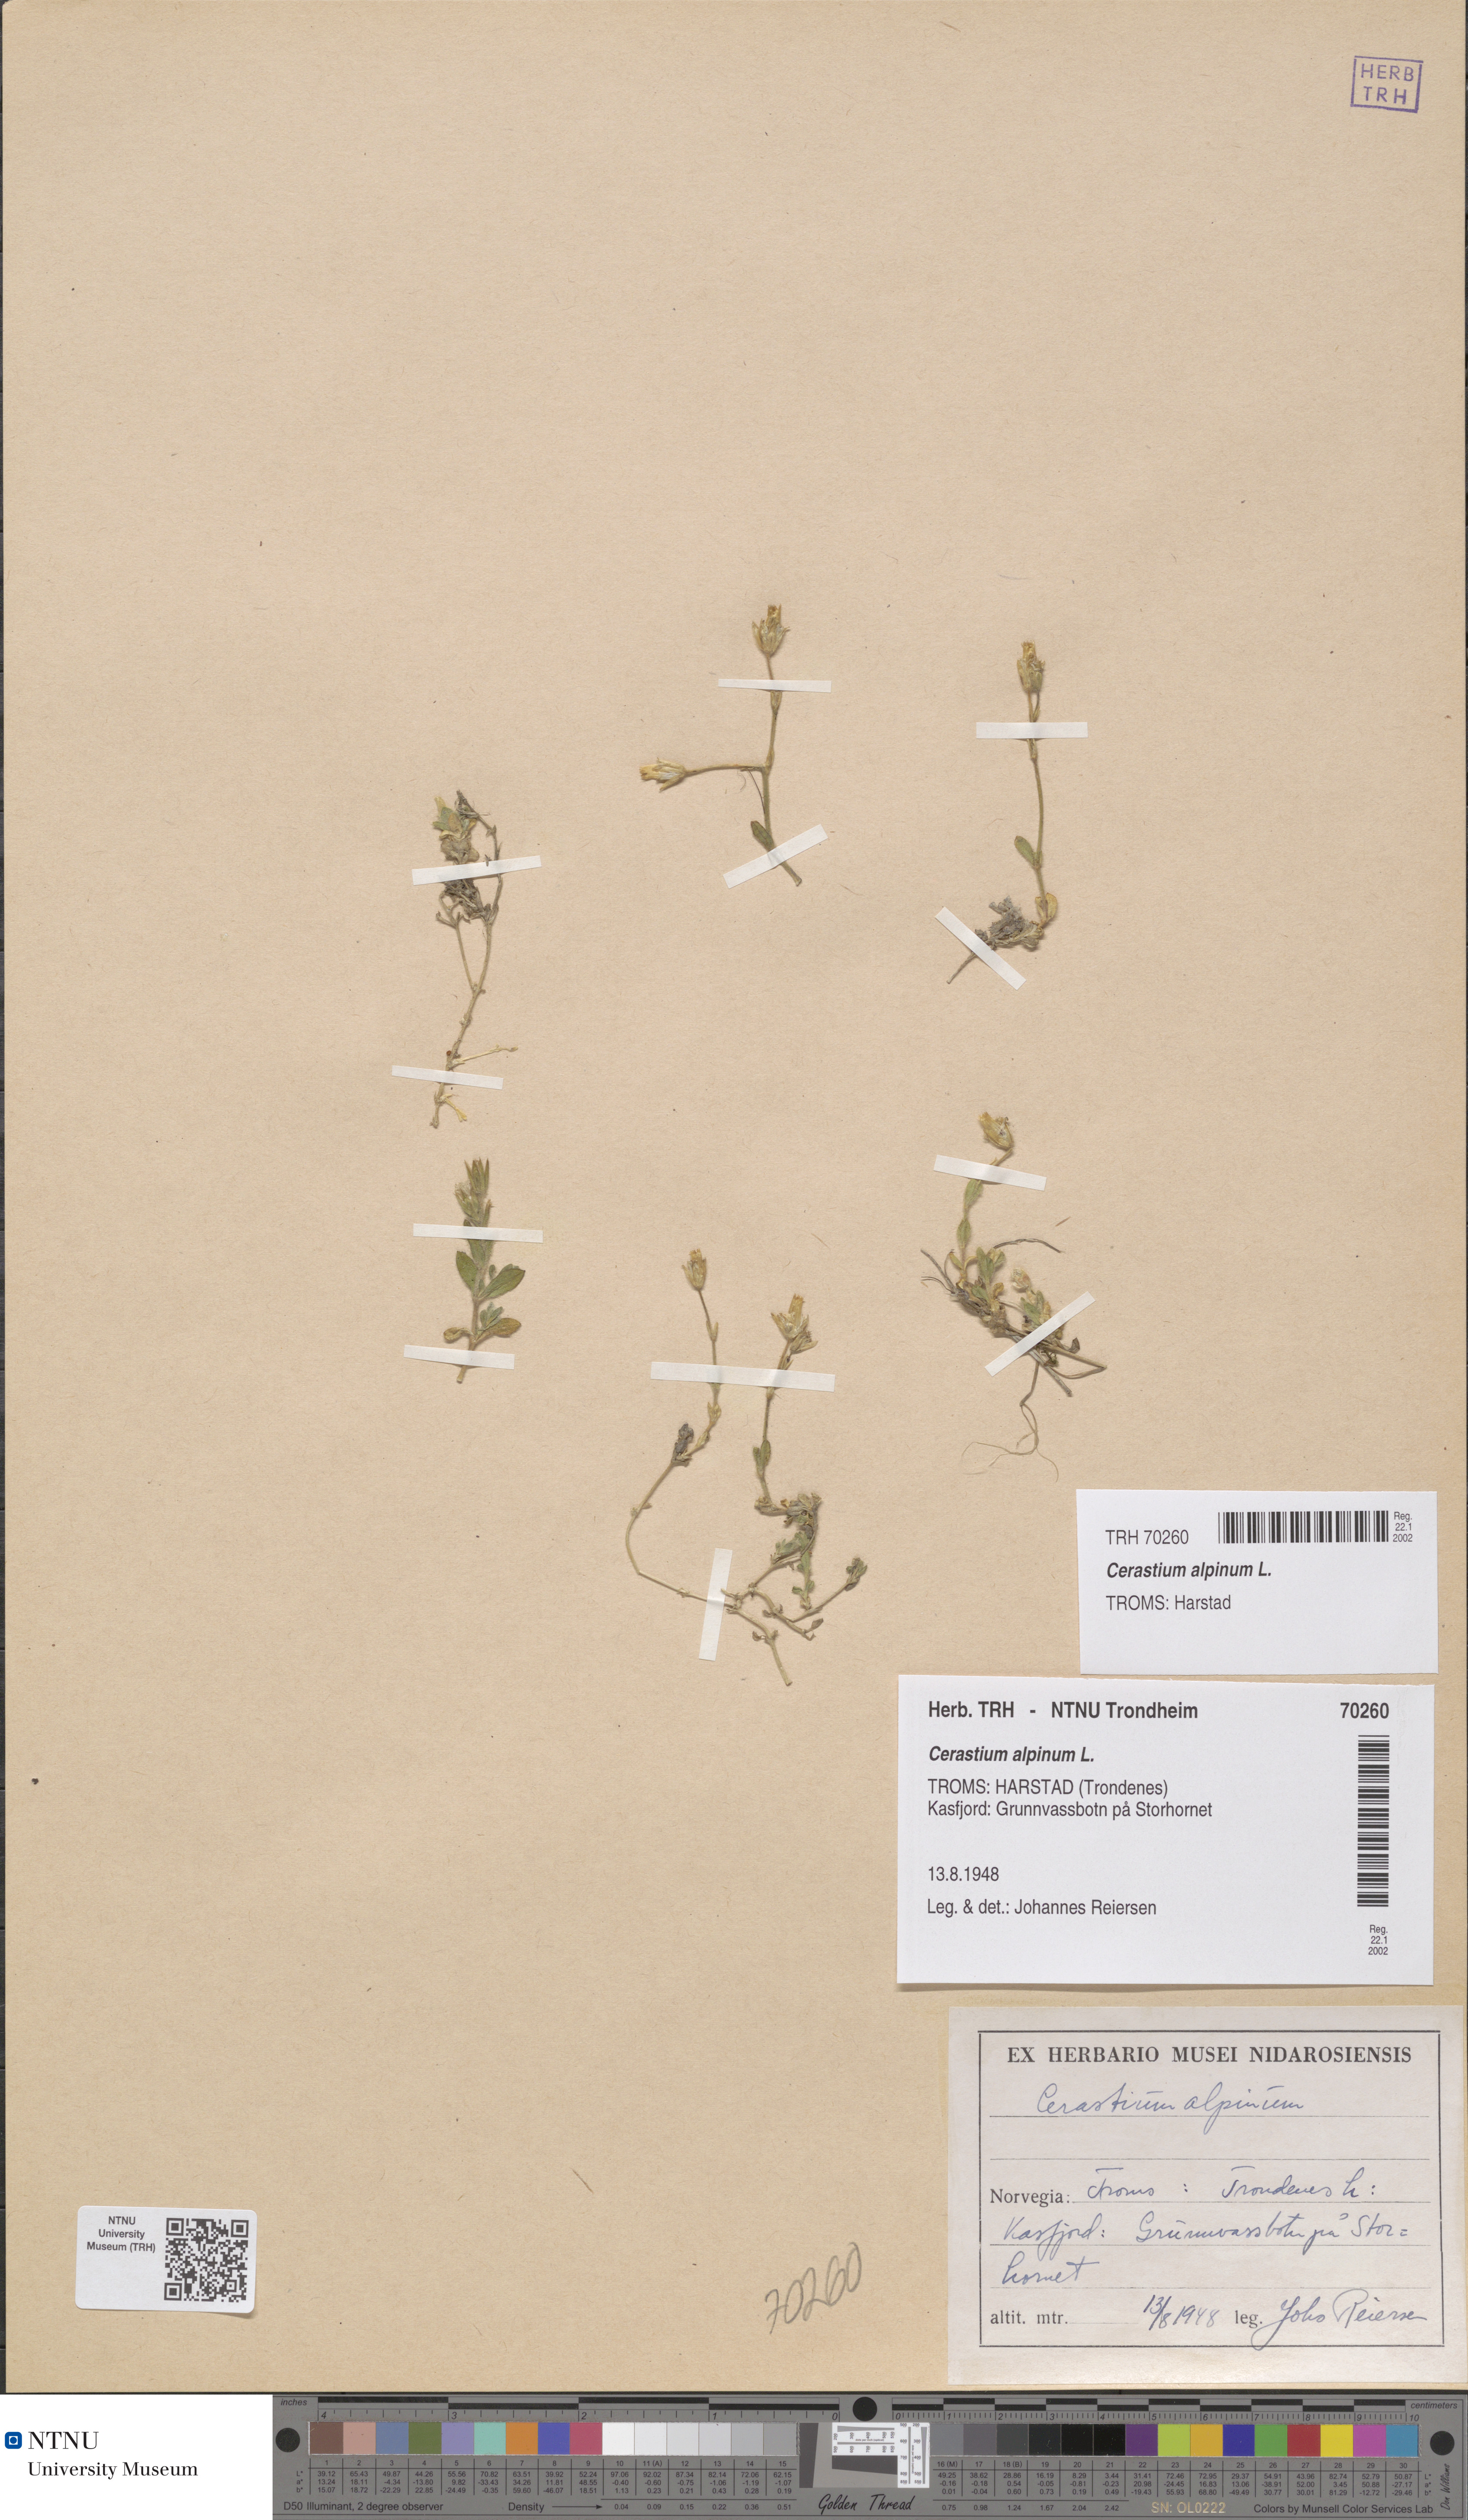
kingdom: Plantae
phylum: Tracheophyta
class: Magnoliopsida
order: Caryophyllales
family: Caryophyllaceae
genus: Cerastium
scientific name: Cerastium alpinum
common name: Alpine mouse-ear
